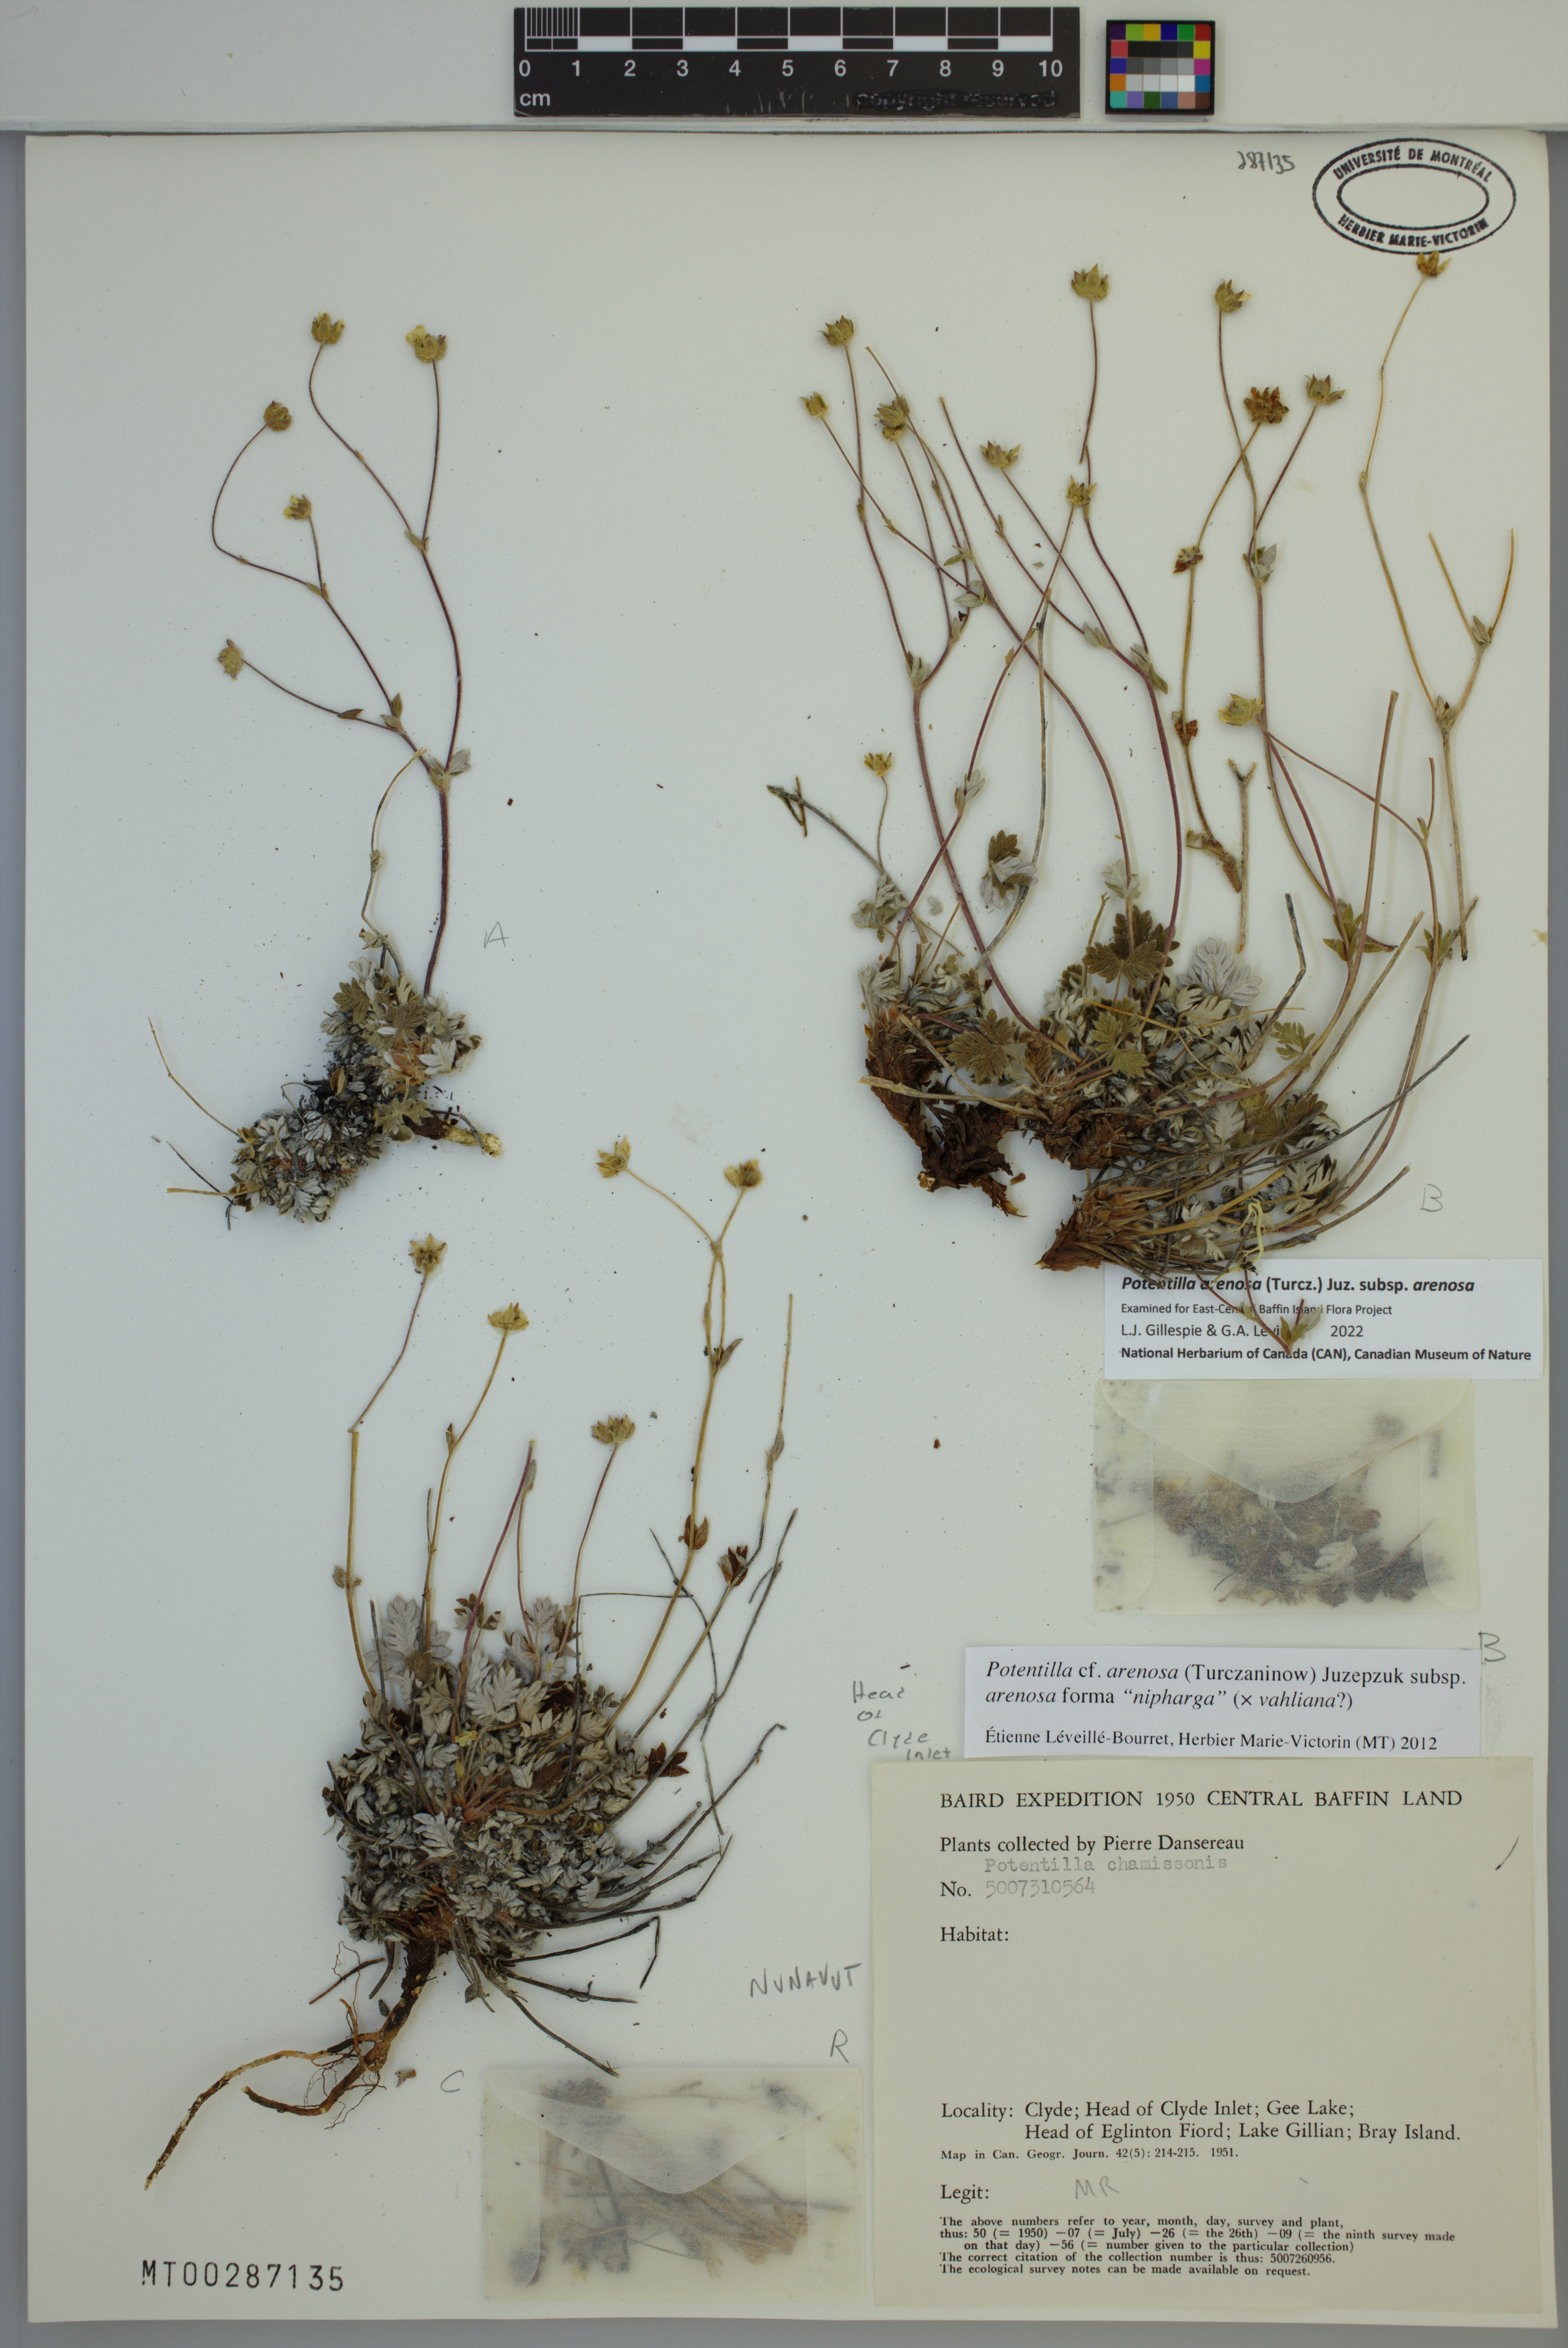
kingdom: Plantae
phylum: Tracheophyta
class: Magnoliopsida
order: Rosales
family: Rosaceae
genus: Potentilla
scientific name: Potentilla arenosa
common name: Bluff cinquefoil
